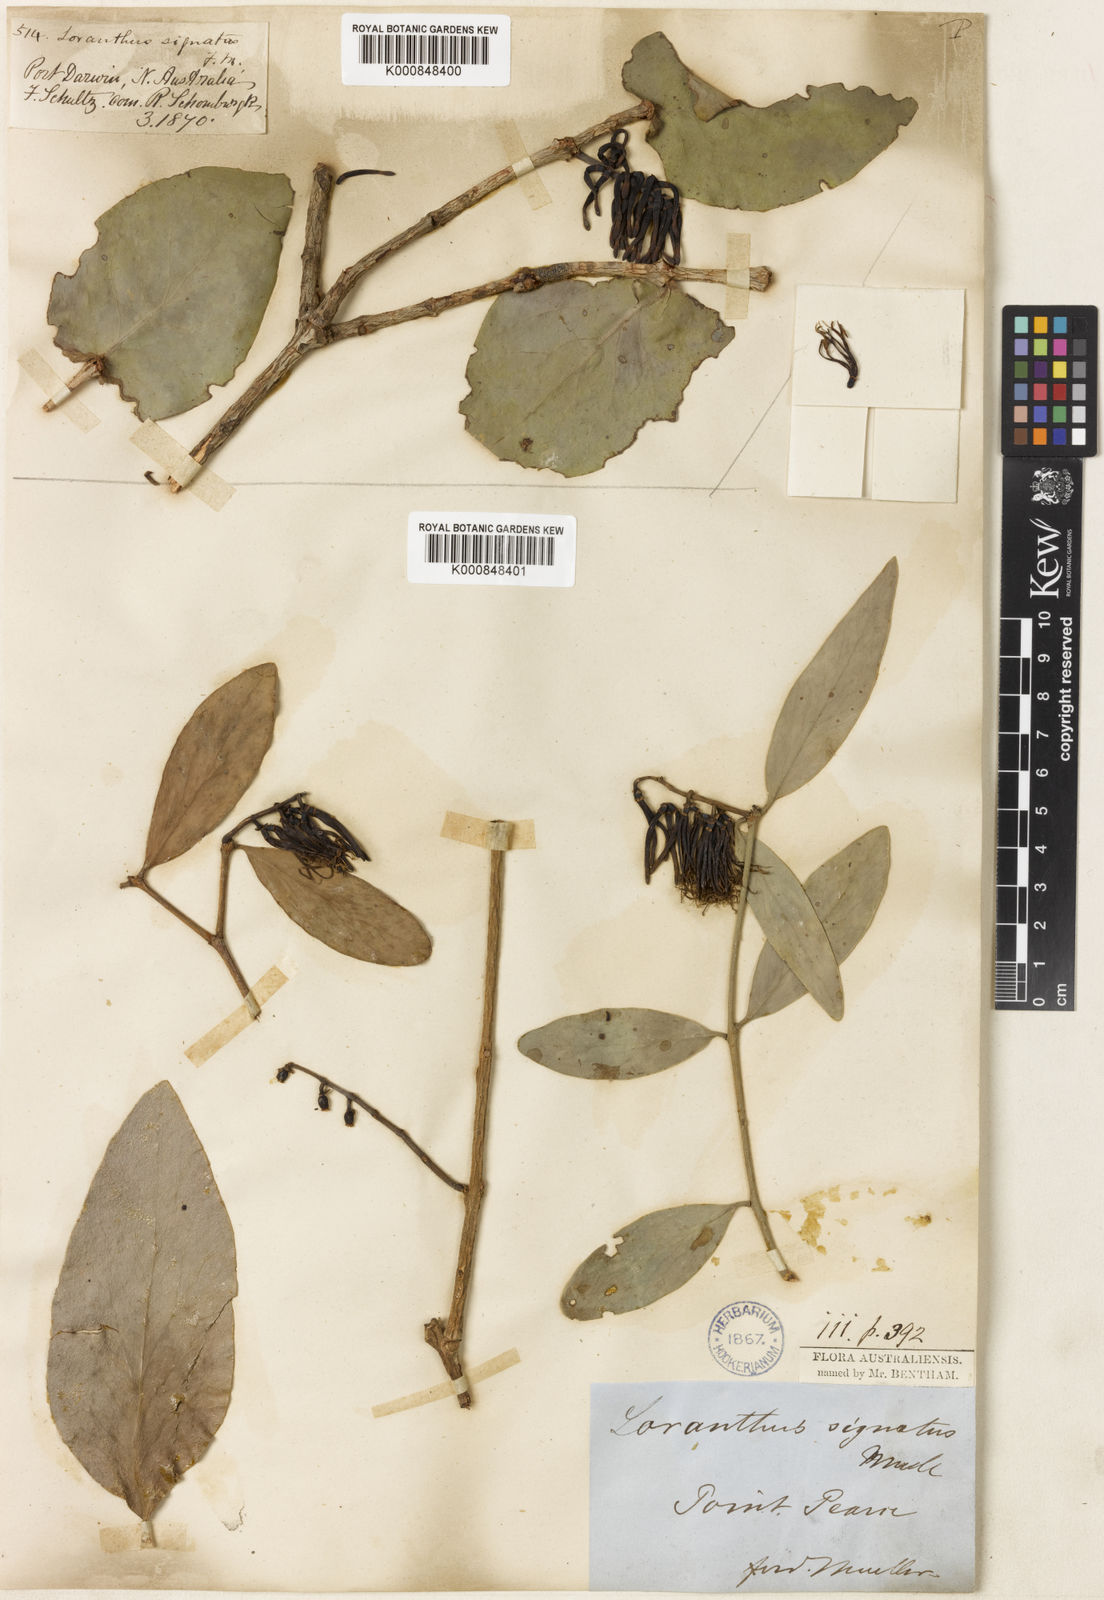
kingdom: Plantae
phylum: Tracheophyta
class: Magnoliopsida
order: Santalales
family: Loranthaceae
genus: Decaisnina
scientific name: Decaisnina signata
